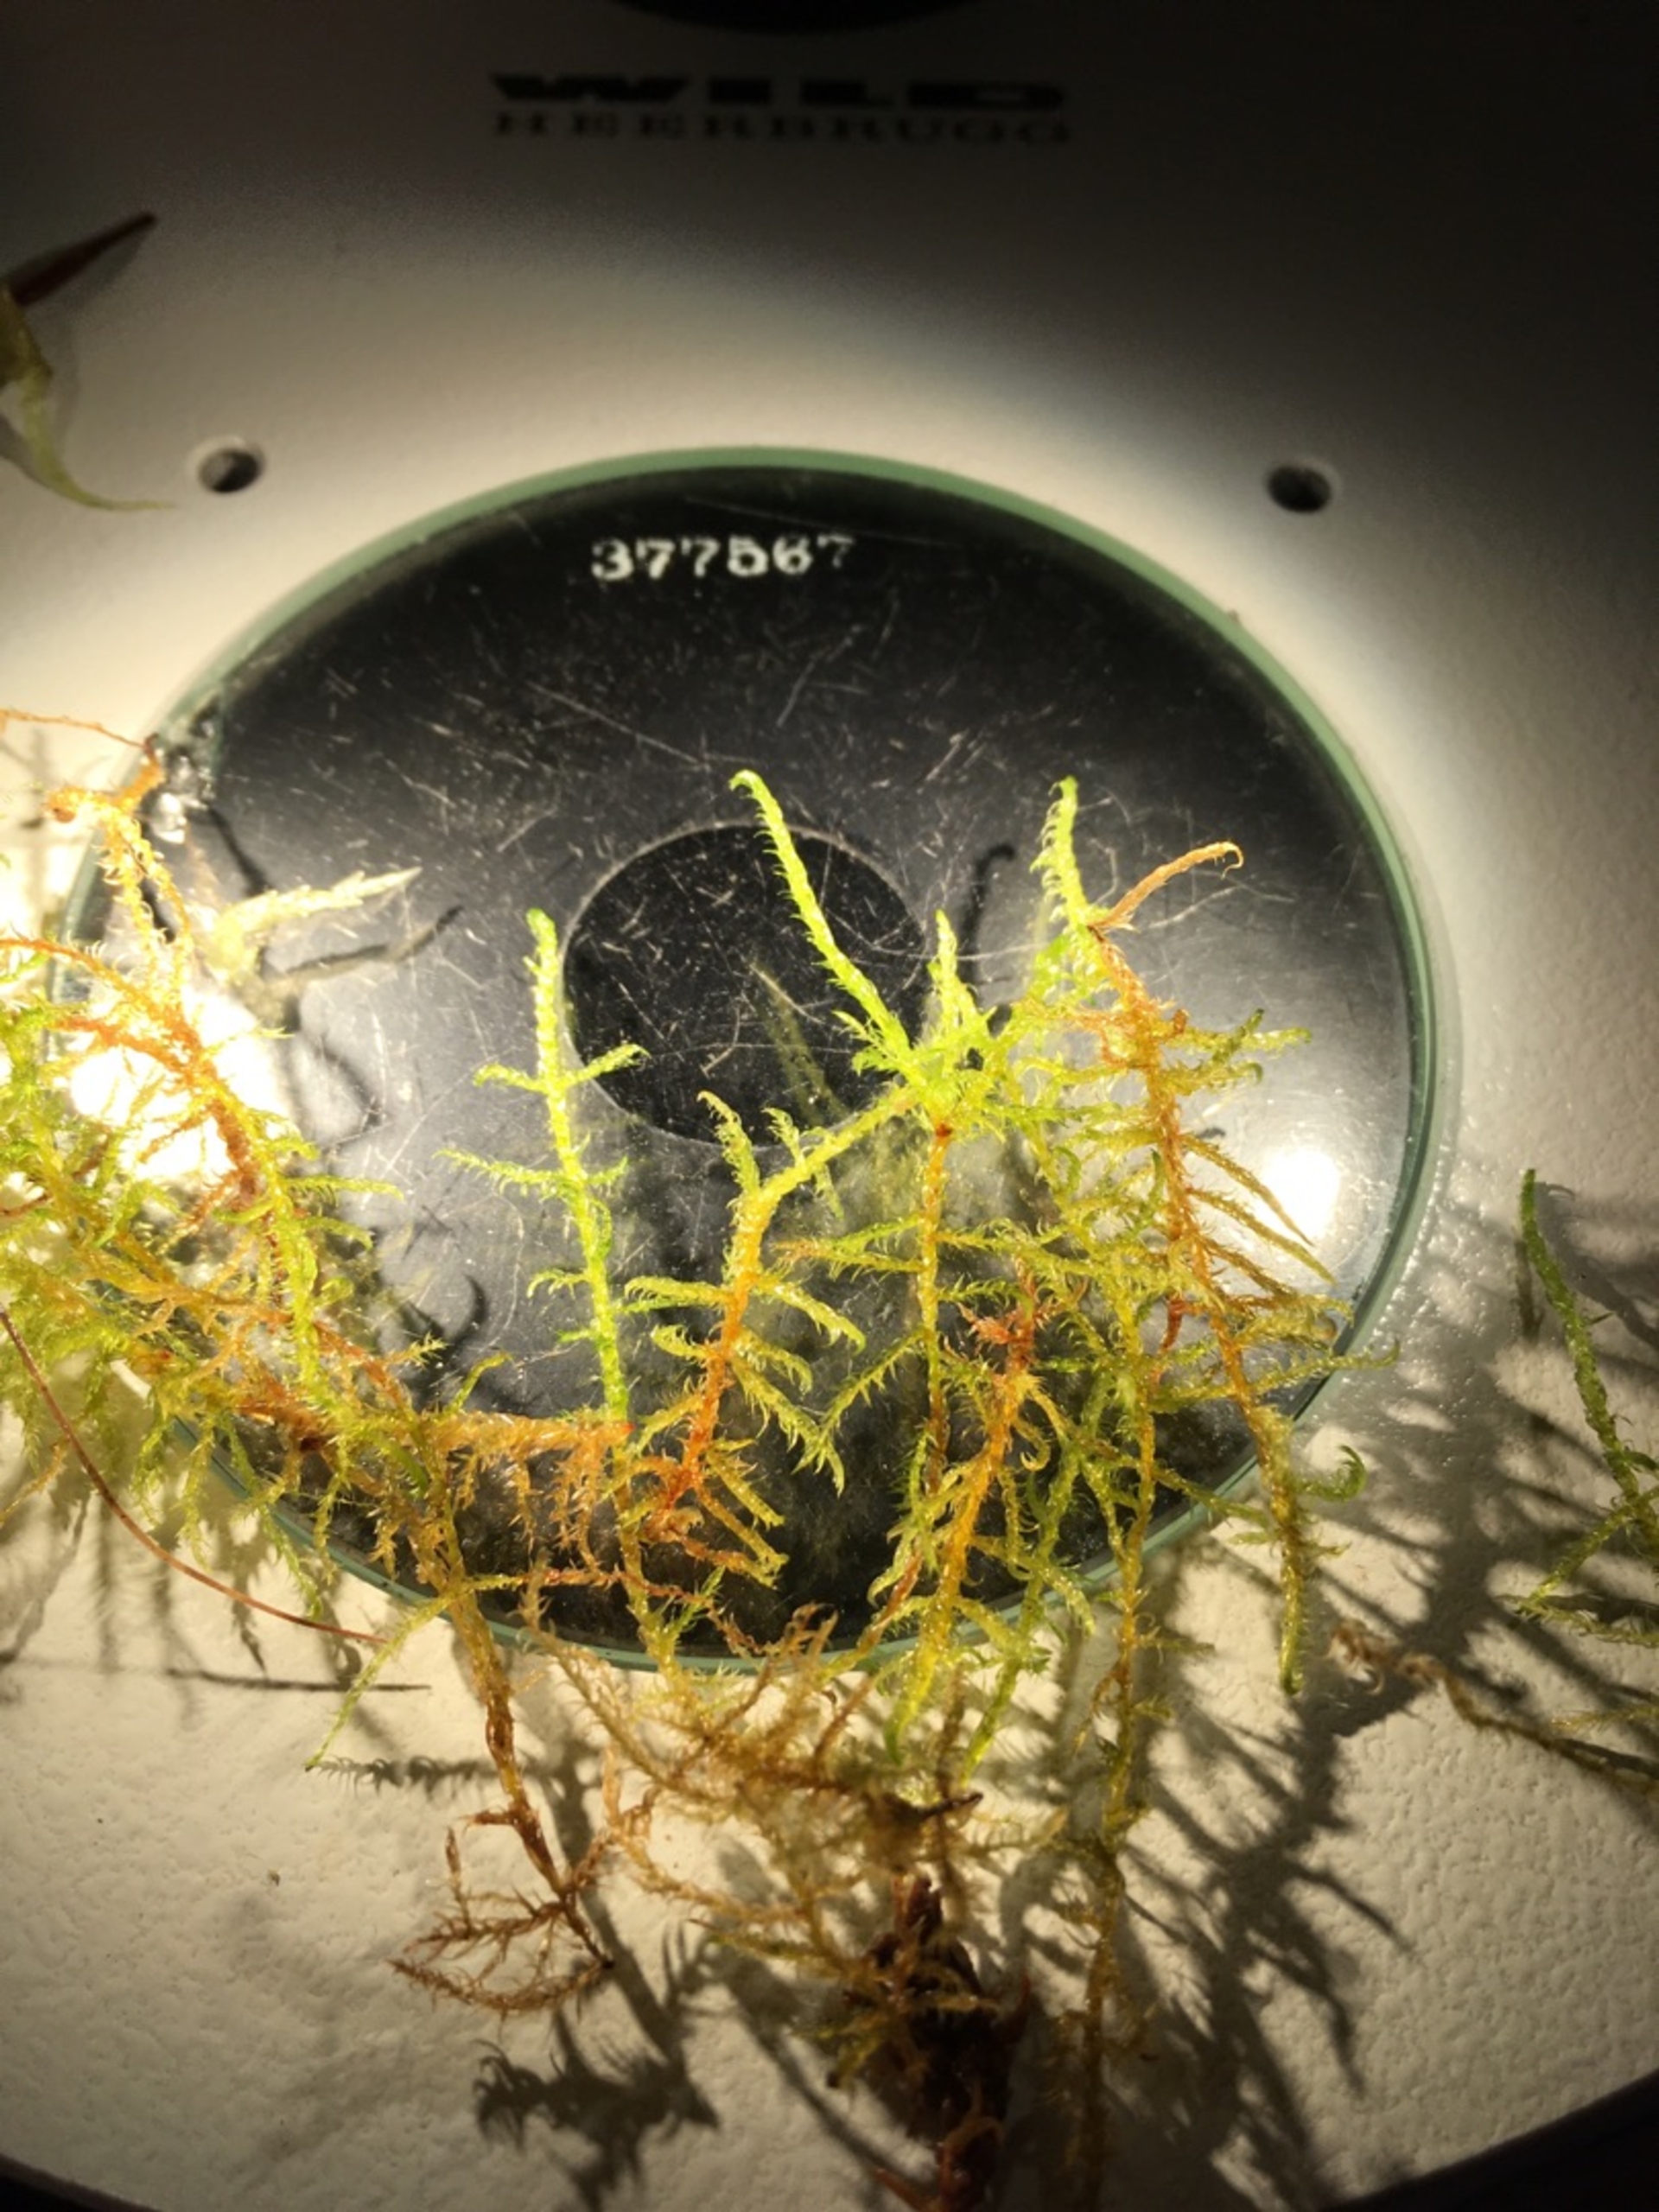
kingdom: Plantae
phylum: Bryophyta
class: Bryopsida
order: Hypnales
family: Calliergonaceae
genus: Sarmentypnum
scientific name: Sarmentypnum exannulatum
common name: Rødlig bueblad
